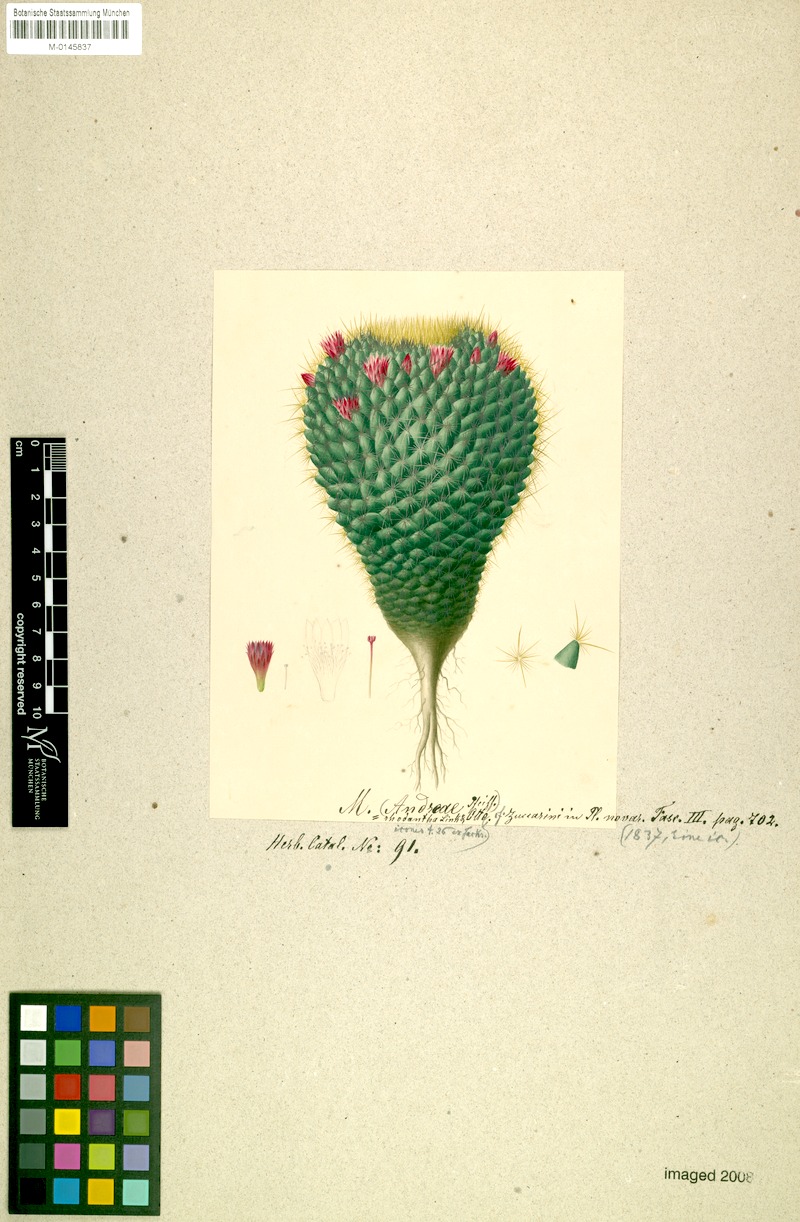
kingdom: Plantae
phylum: Tracheophyta
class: Magnoliopsida
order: Caryophyllales
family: Cactaceae
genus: Mammillaria
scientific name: Mammillaria rhodantha
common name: Rainbow pincushion
